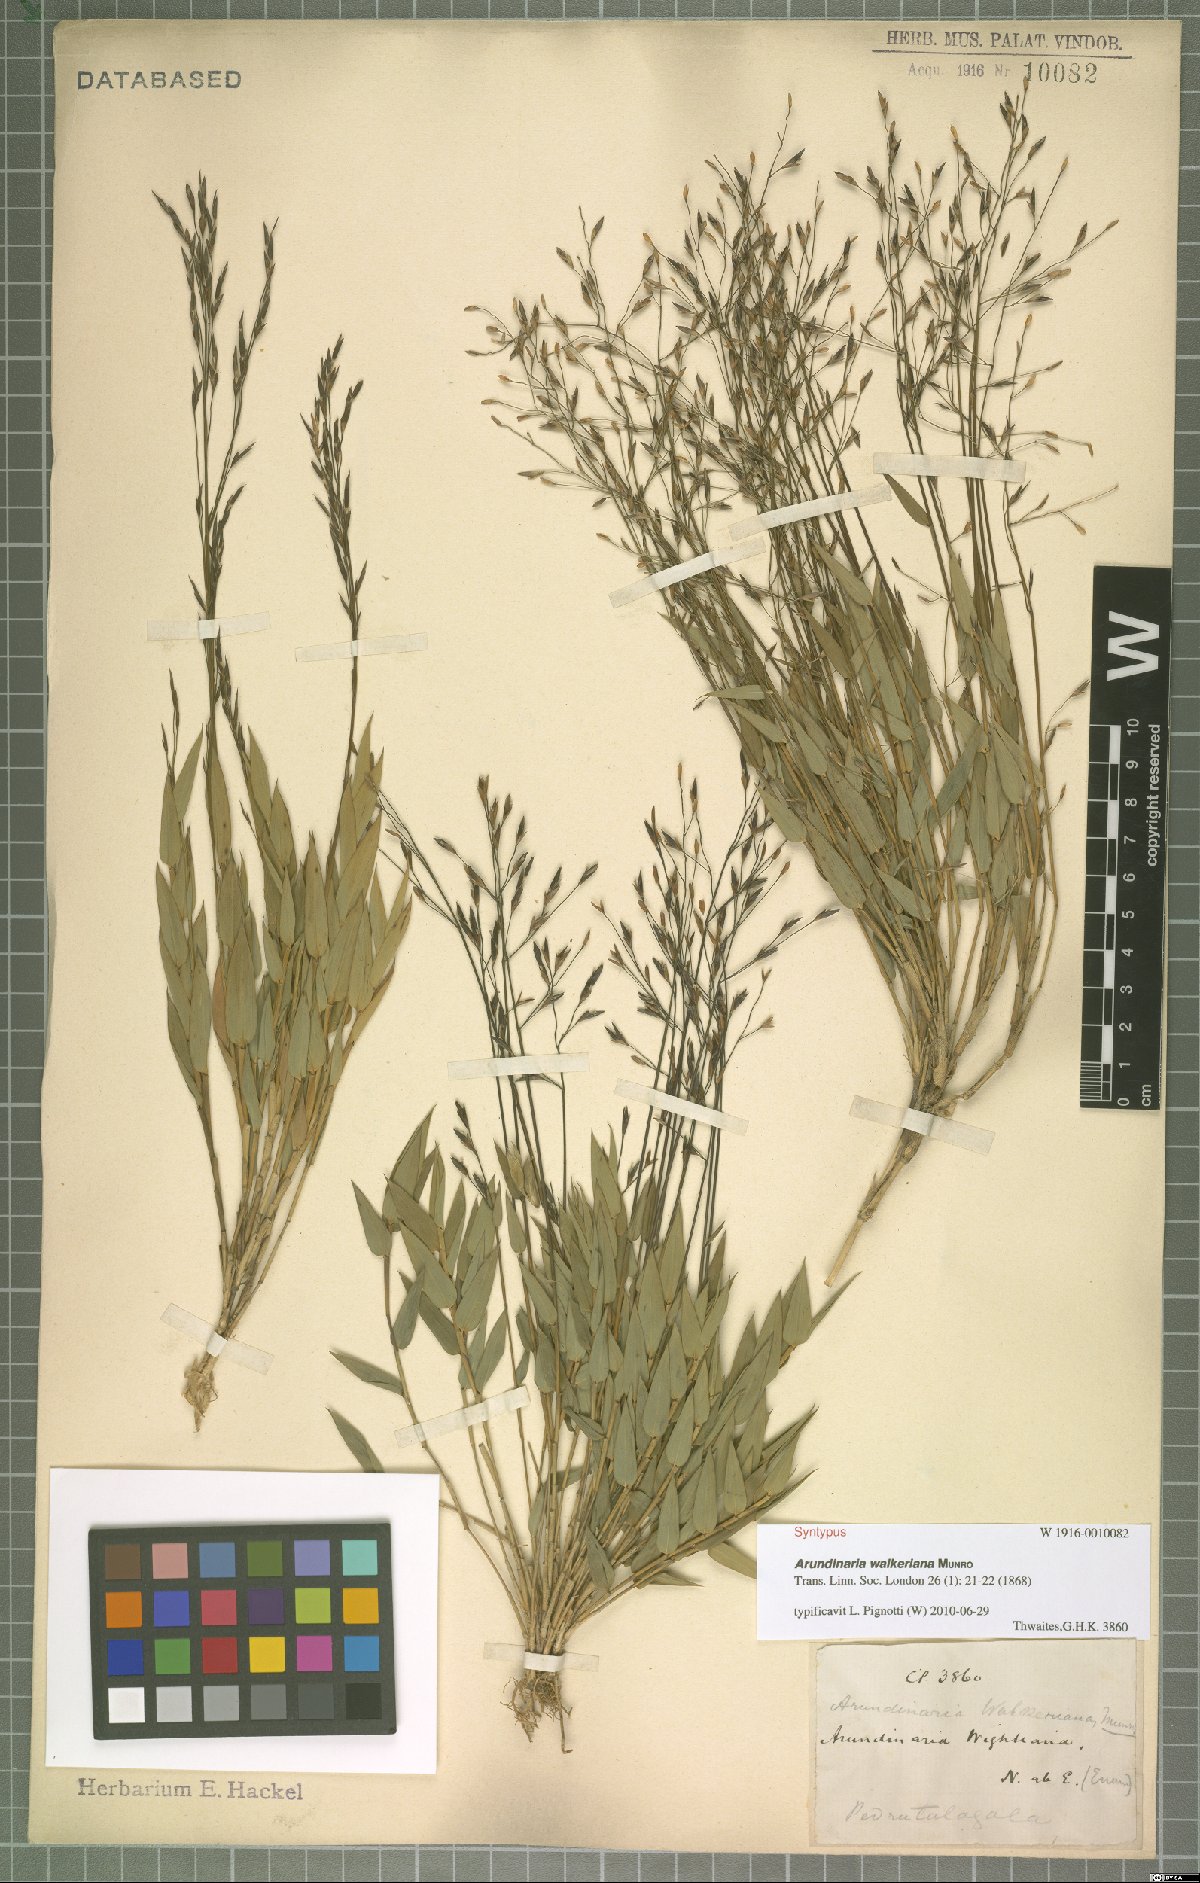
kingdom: Plantae
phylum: Tracheophyta
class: Liliopsida
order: Poales
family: Poaceae
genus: Kuruna
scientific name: Kuruna walkeriana
